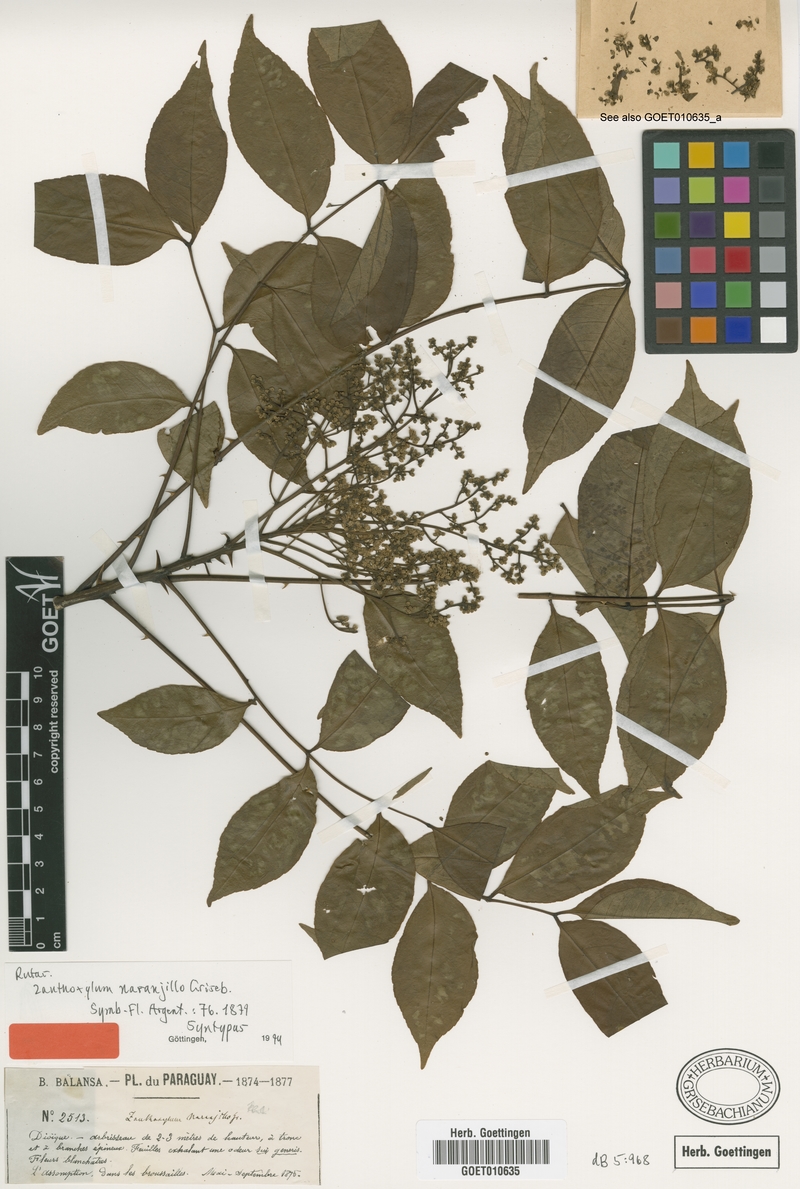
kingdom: Plantae
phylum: Tracheophyta
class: Magnoliopsida
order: Sapindales
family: Rutaceae
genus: Zanthoxylum
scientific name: Zanthoxylum petiolare
